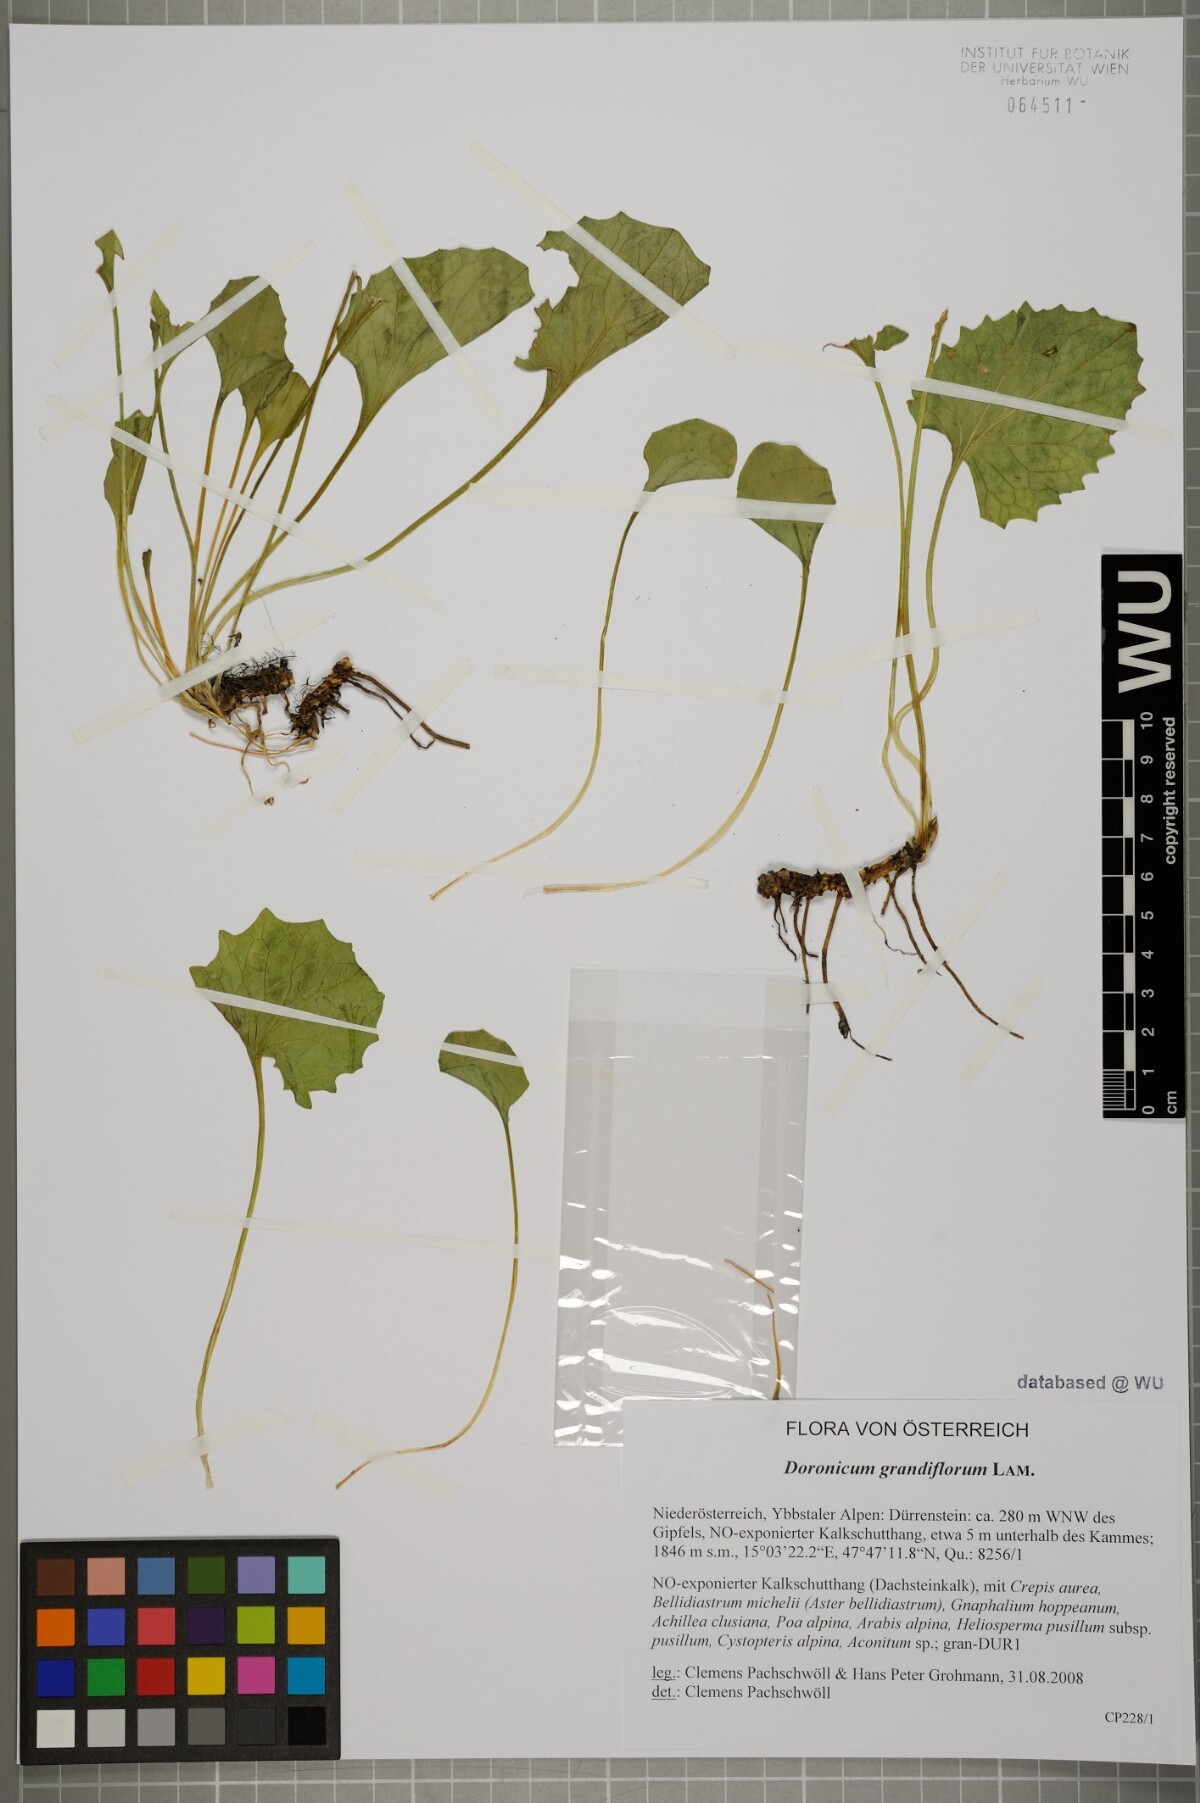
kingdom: Plantae
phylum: Tracheophyta
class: Magnoliopsida
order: Asterales
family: Asteraceae
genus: Doronicum
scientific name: Doronicum grandiflorum
